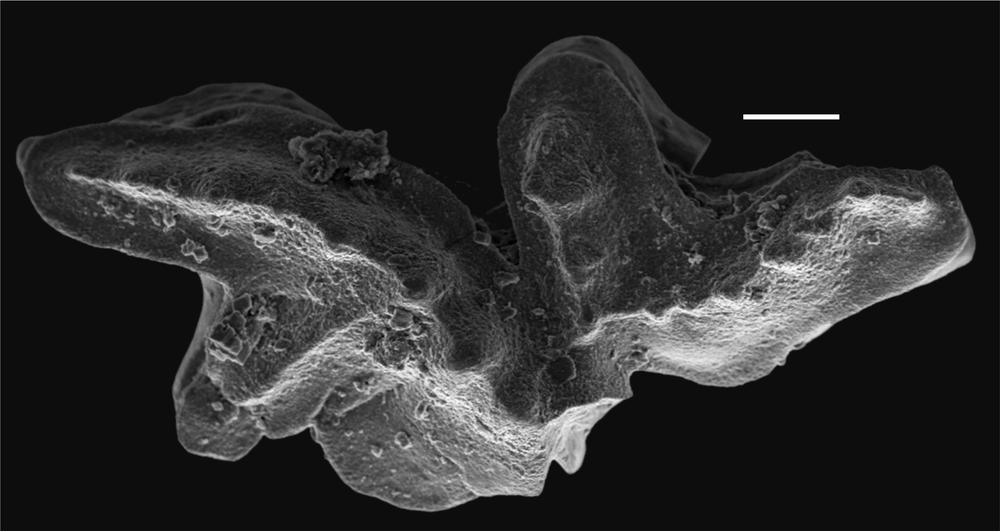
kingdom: Animalia
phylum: Chordata
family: Balognathidae
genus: Amorphognathus
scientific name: Amorphognathus
